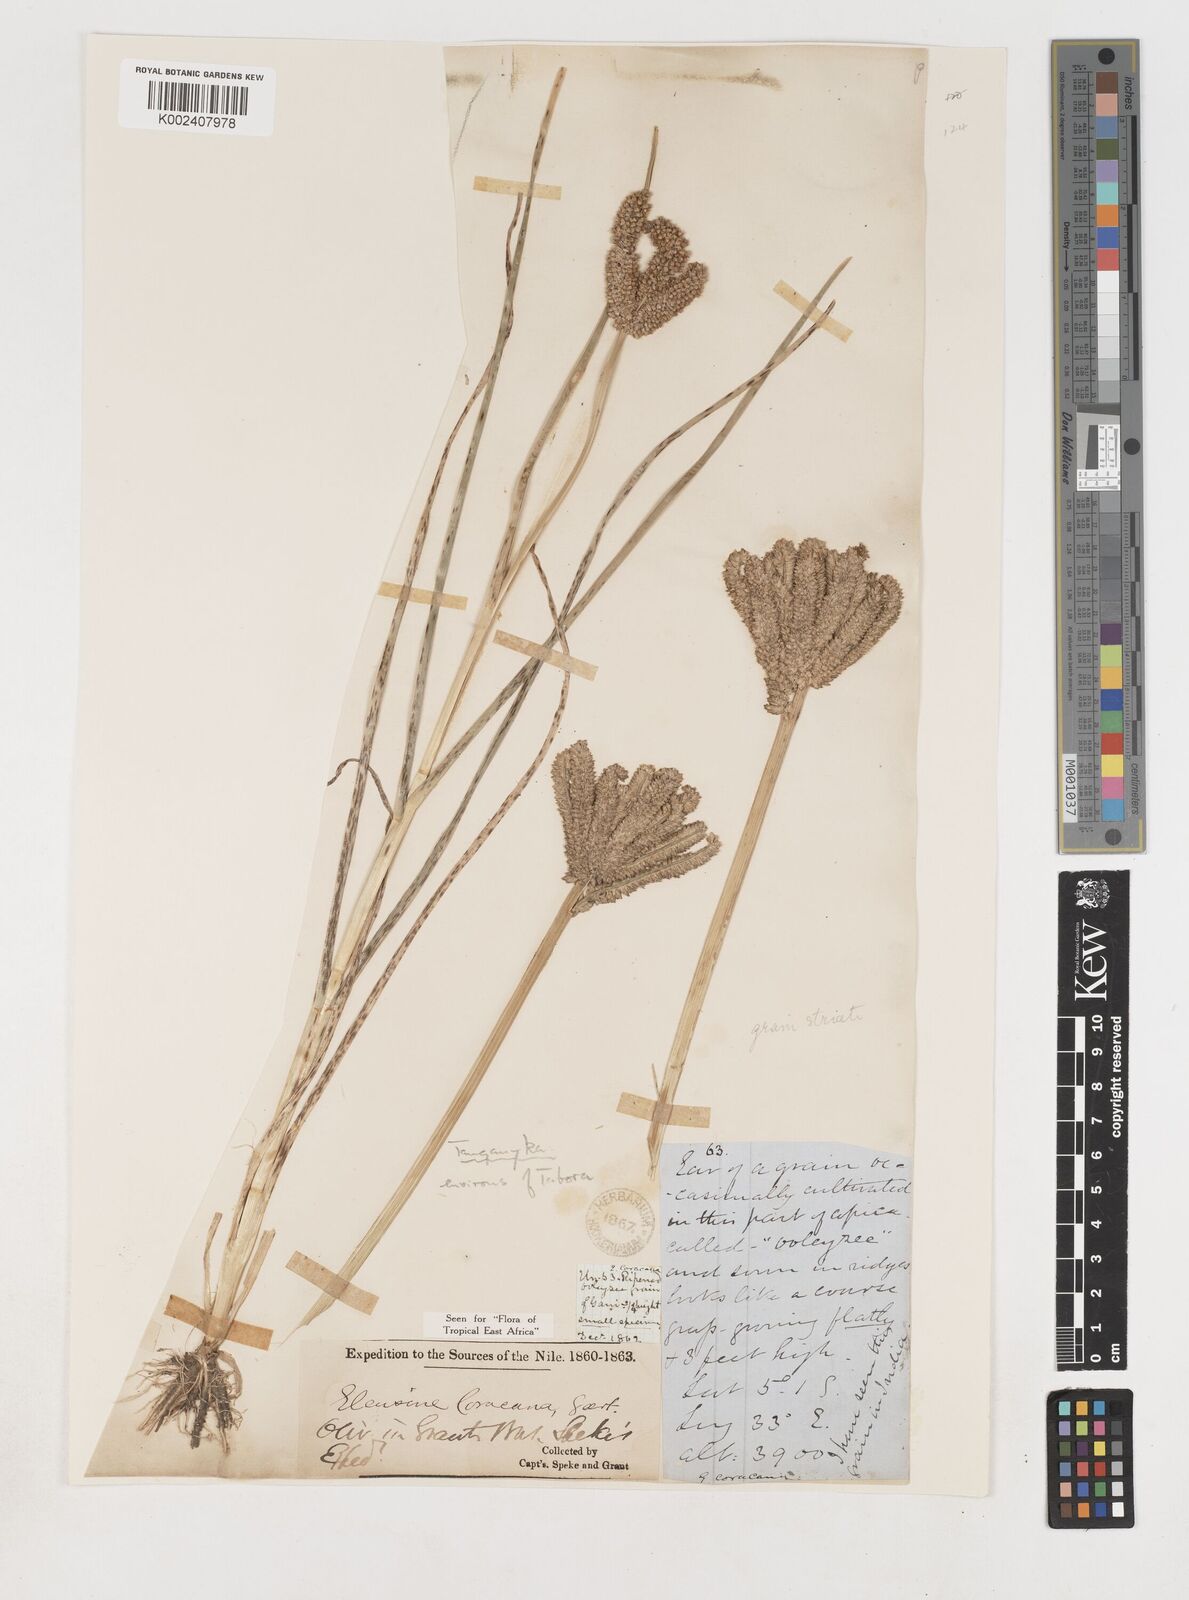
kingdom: Plantae
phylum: Tracheophyta
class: Liliopsida
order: Poales
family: Poaceae
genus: Eleusine
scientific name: Eleusine coracana
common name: Finger millet
